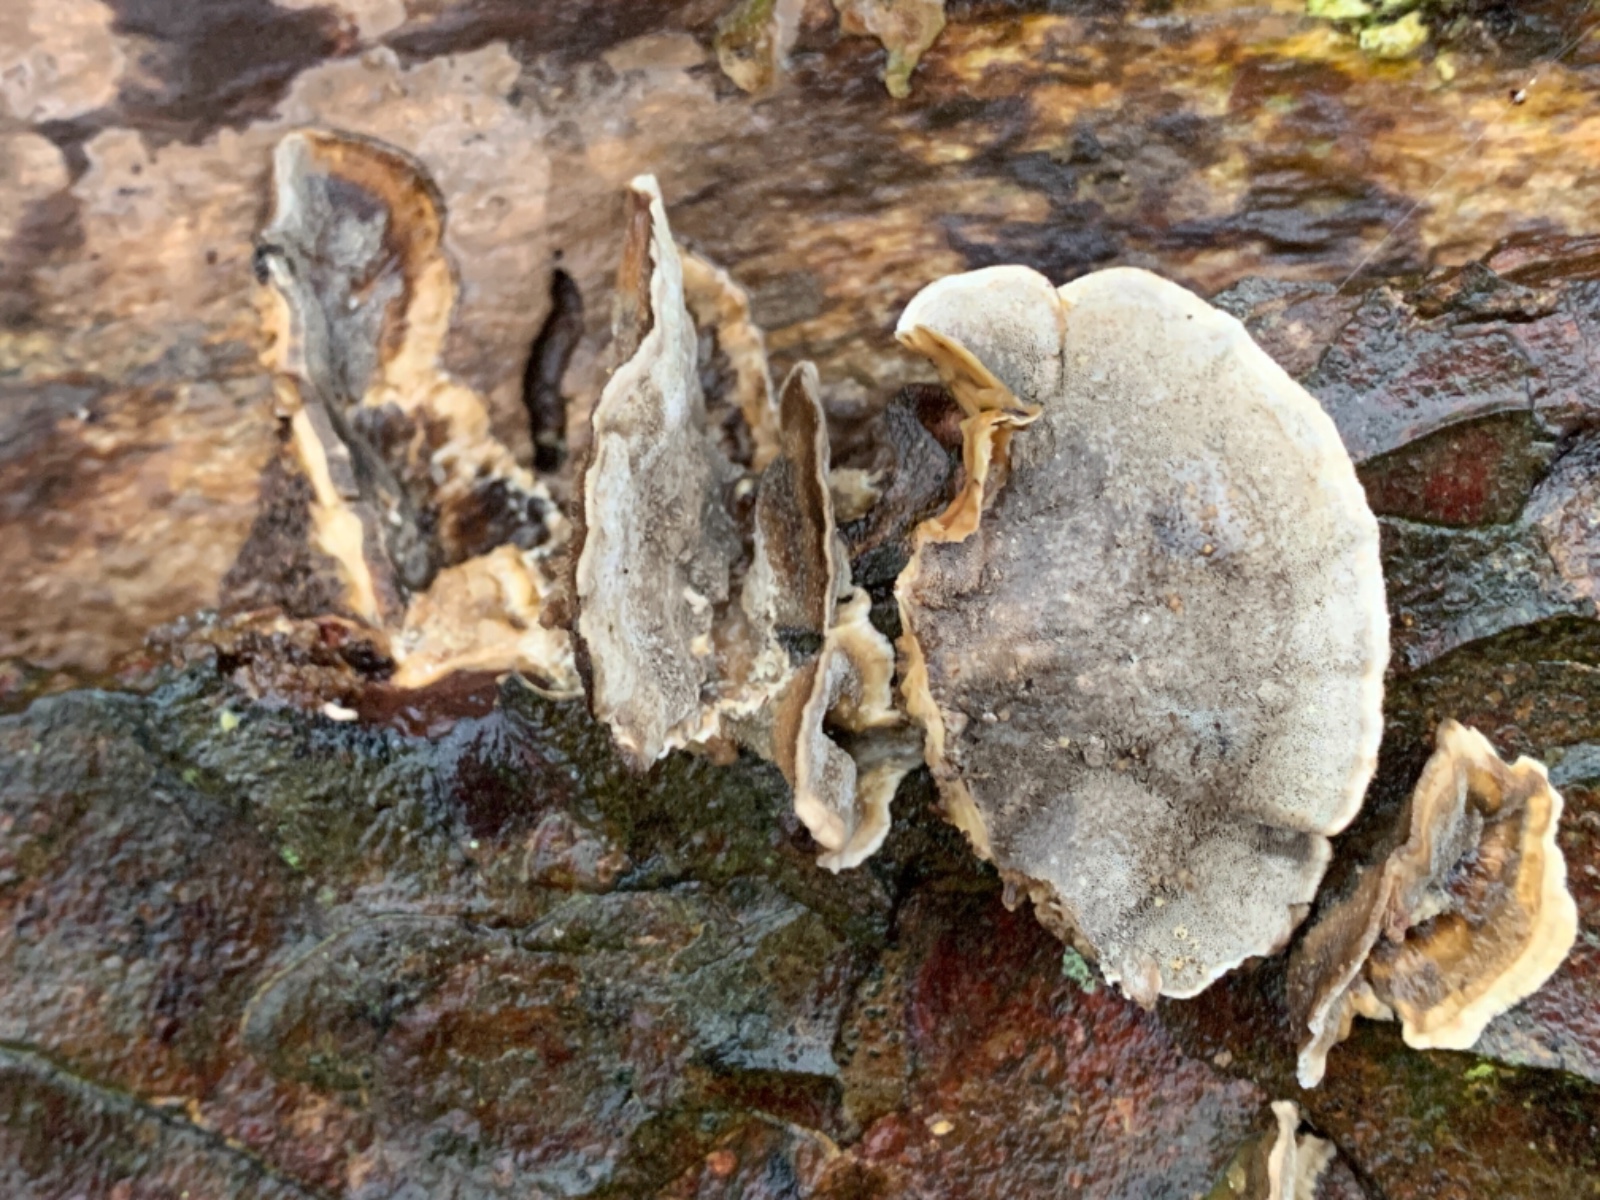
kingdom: Fungi
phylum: Basidiomycota
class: Agaricomycetes
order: Polyporales
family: Phanerochaetaceae
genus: Bjerkandera
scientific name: Bjerkandera adusta
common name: sveden sodporesvamp
